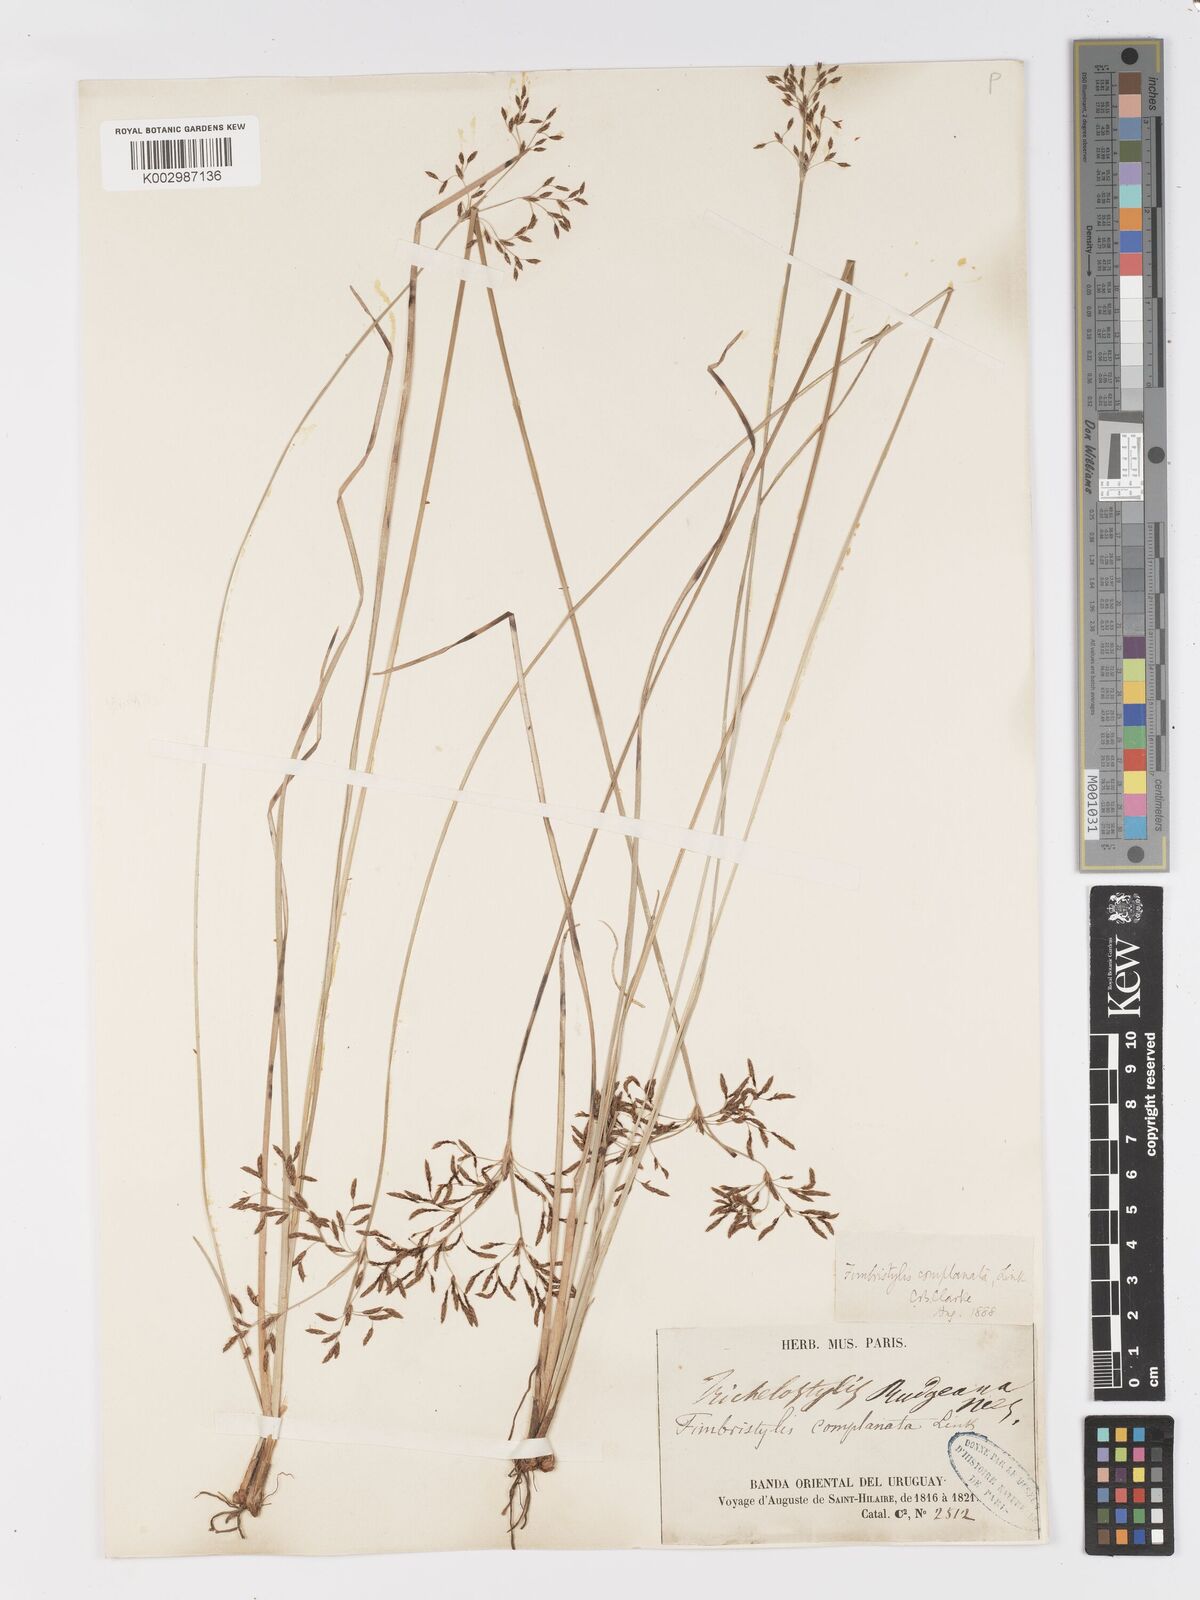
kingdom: Plantae
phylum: Tracheophyta
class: Liliopsida
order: Poales
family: Cyperaceae
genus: Fimbristylis
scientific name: Fimbristylis complanata
